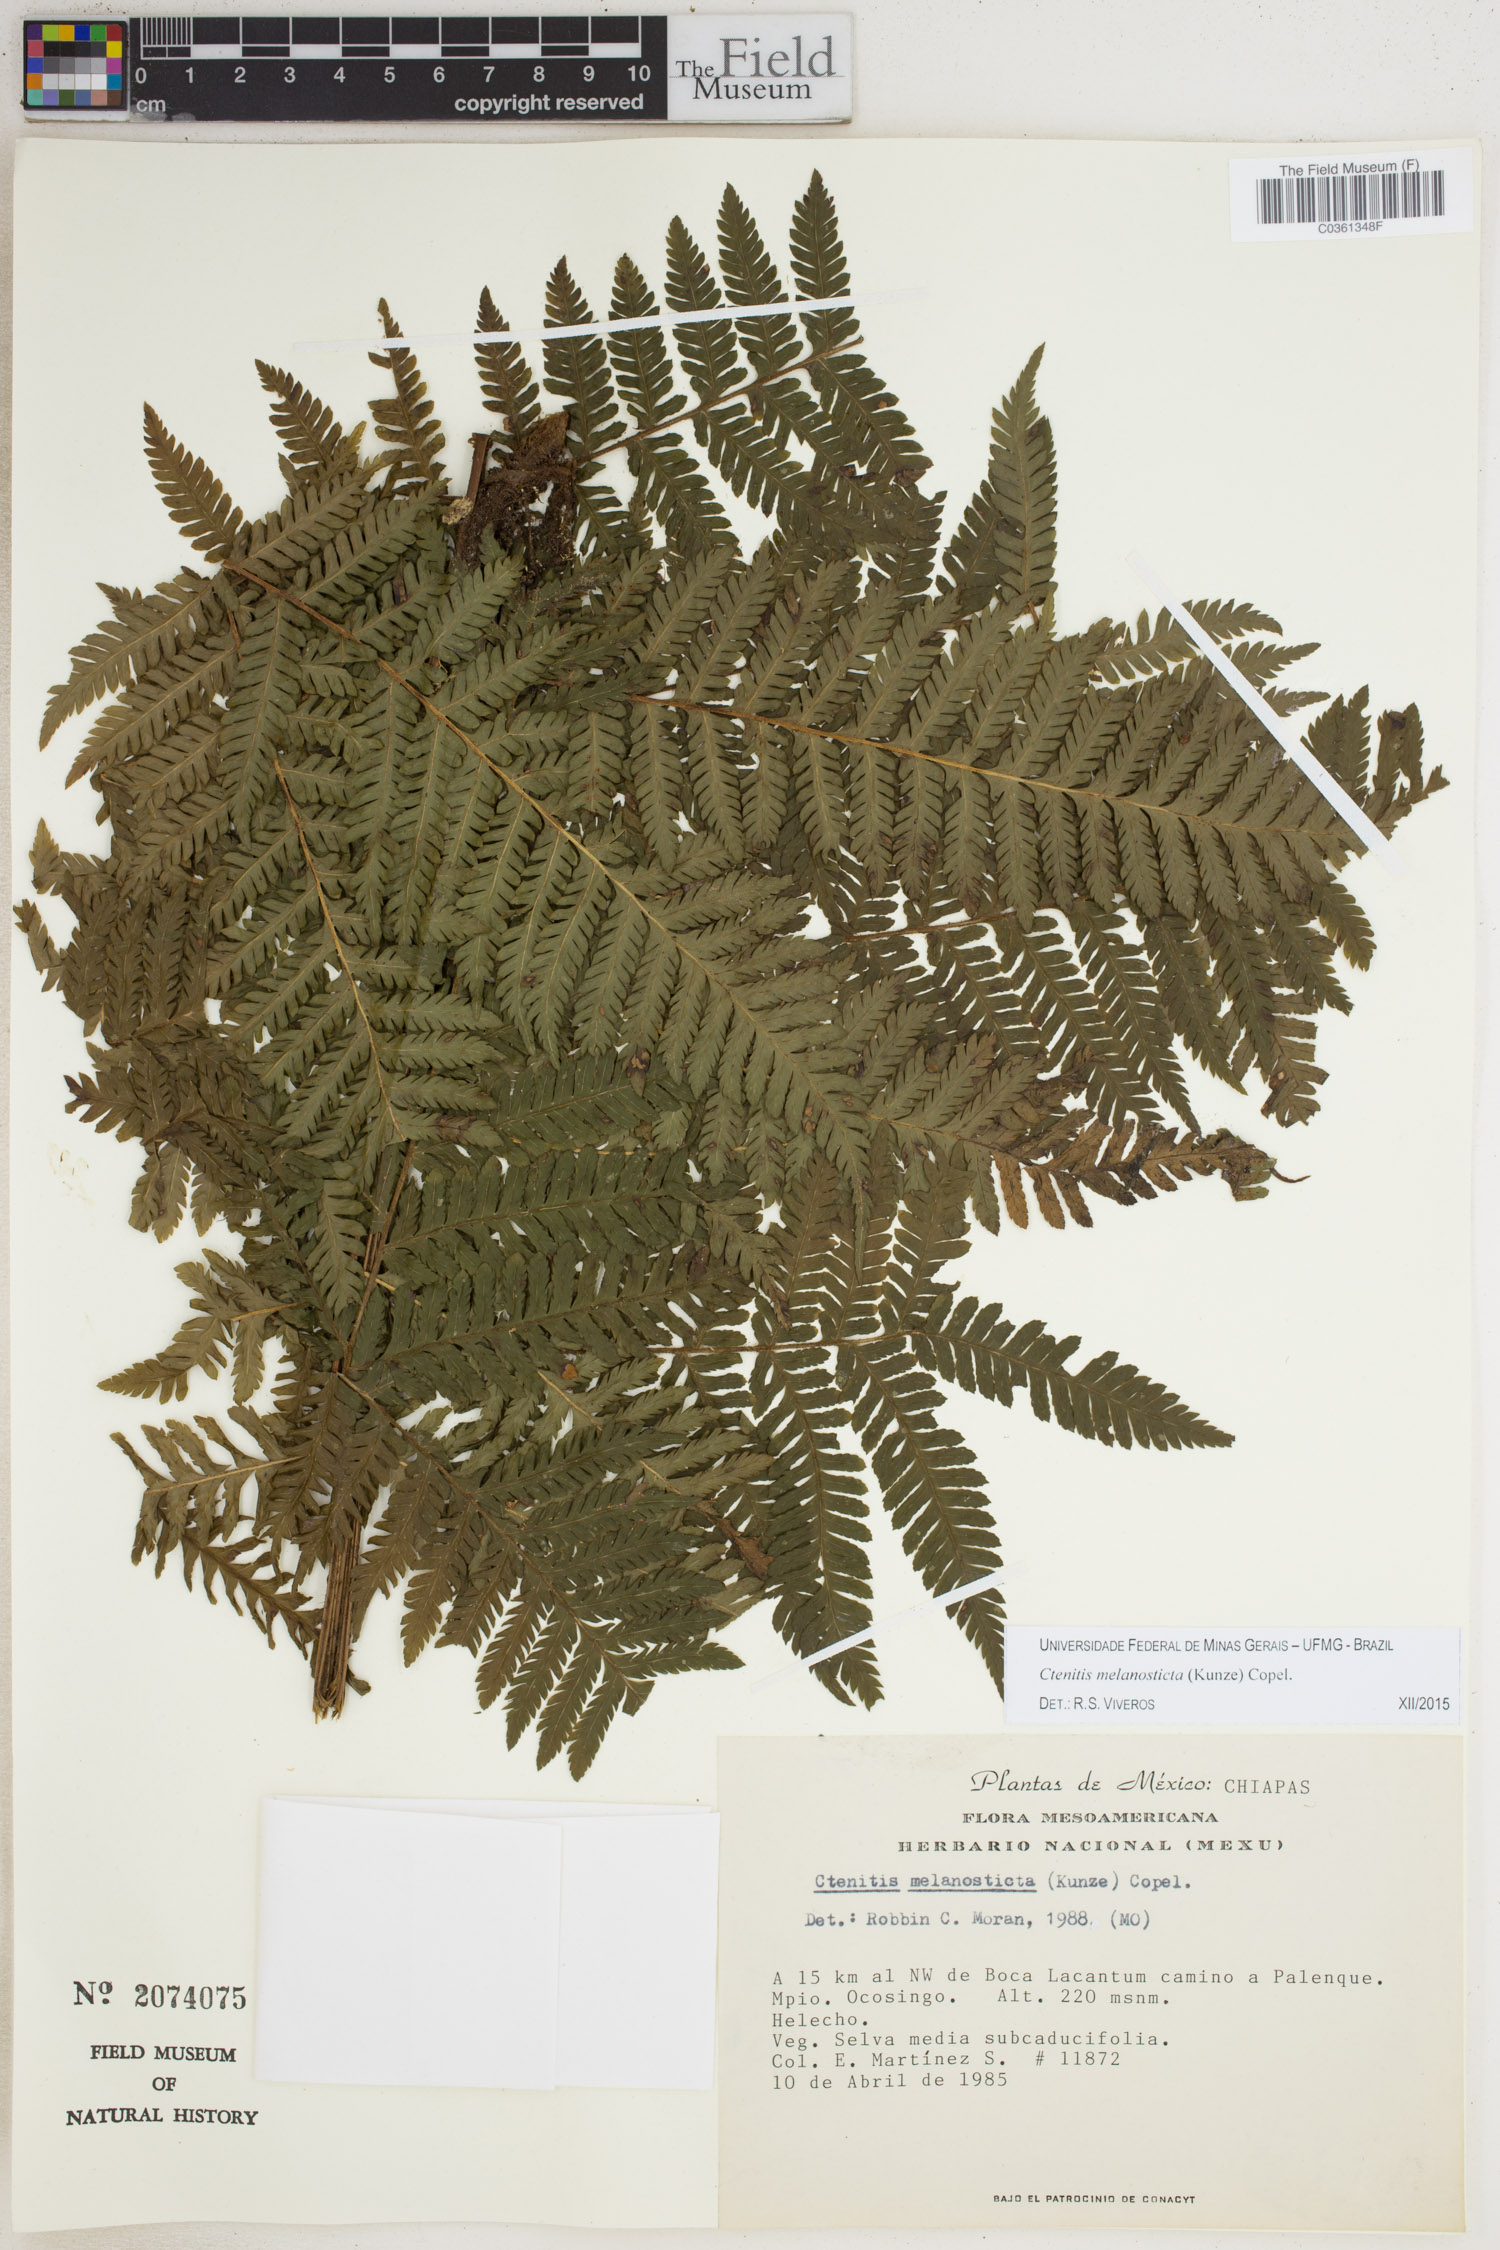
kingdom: Plantae
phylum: Tracheophyta
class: Polypodiopsida
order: Polypodiales
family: Dryopteridaceae
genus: Ctenitis
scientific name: Ctenitis melanosticta
